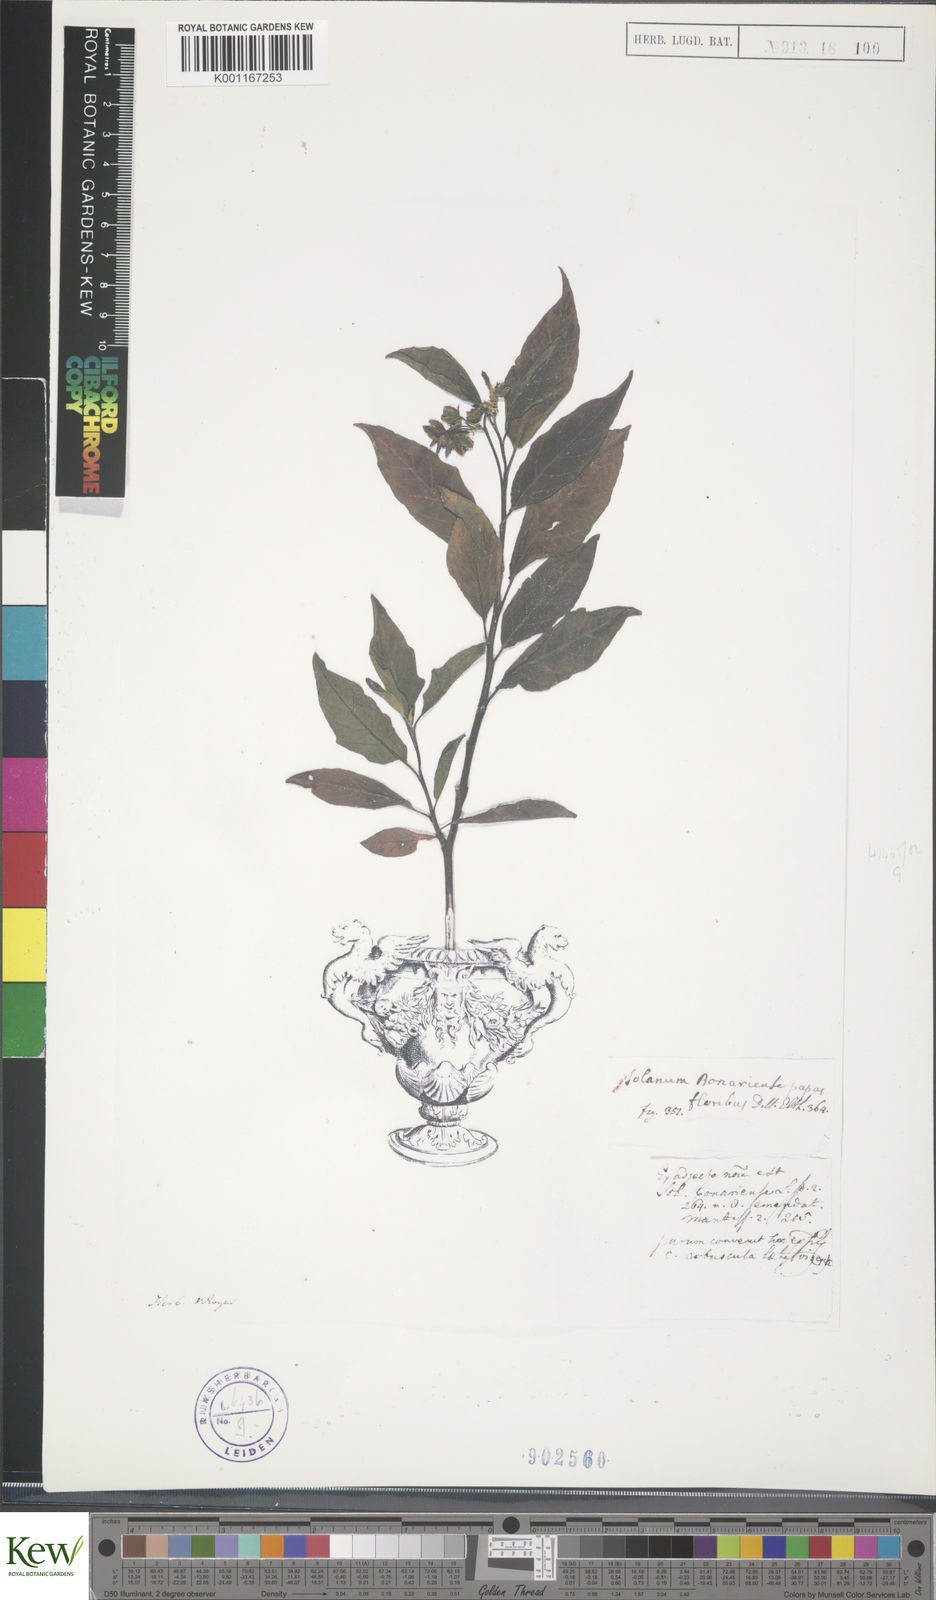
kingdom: Plantae
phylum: Tracheophyta
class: Magnoliopsida
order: Solanales
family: Solanaceae
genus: Solanum
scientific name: Solanum bonariense
